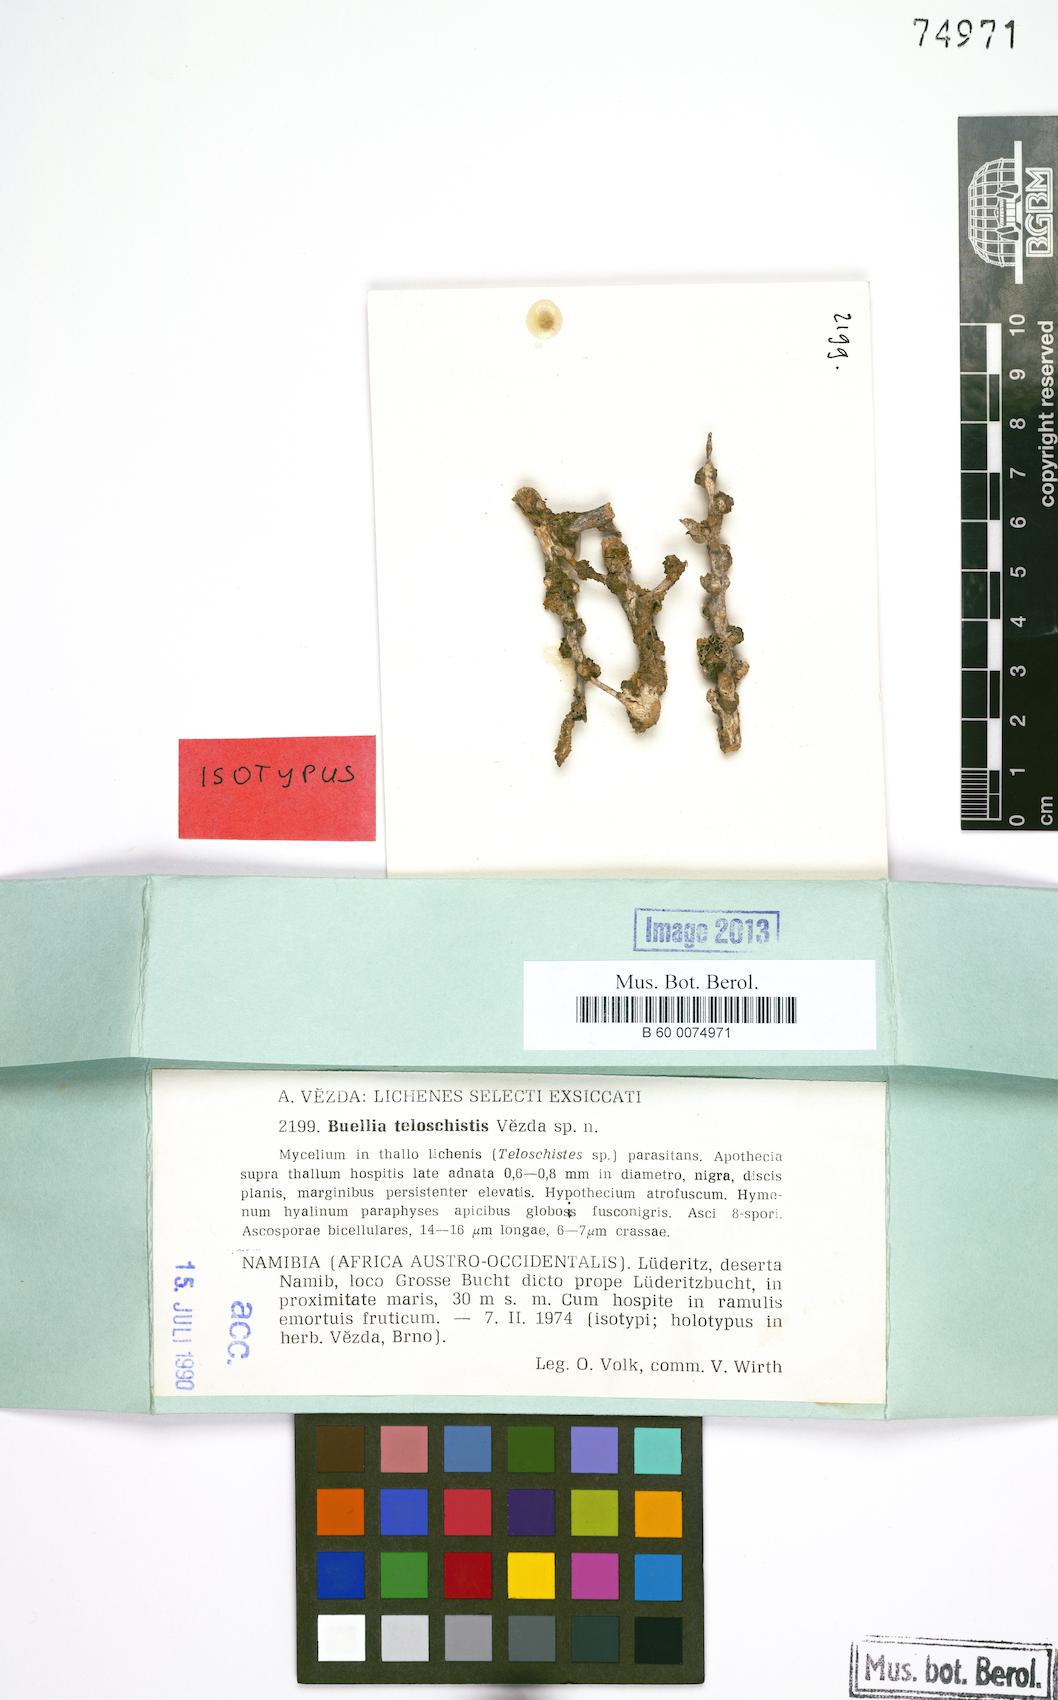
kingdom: Fungi
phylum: Ascomycota
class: Lecanoromycetes
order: Caliciales
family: Physciaceae
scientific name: Physciaceae
